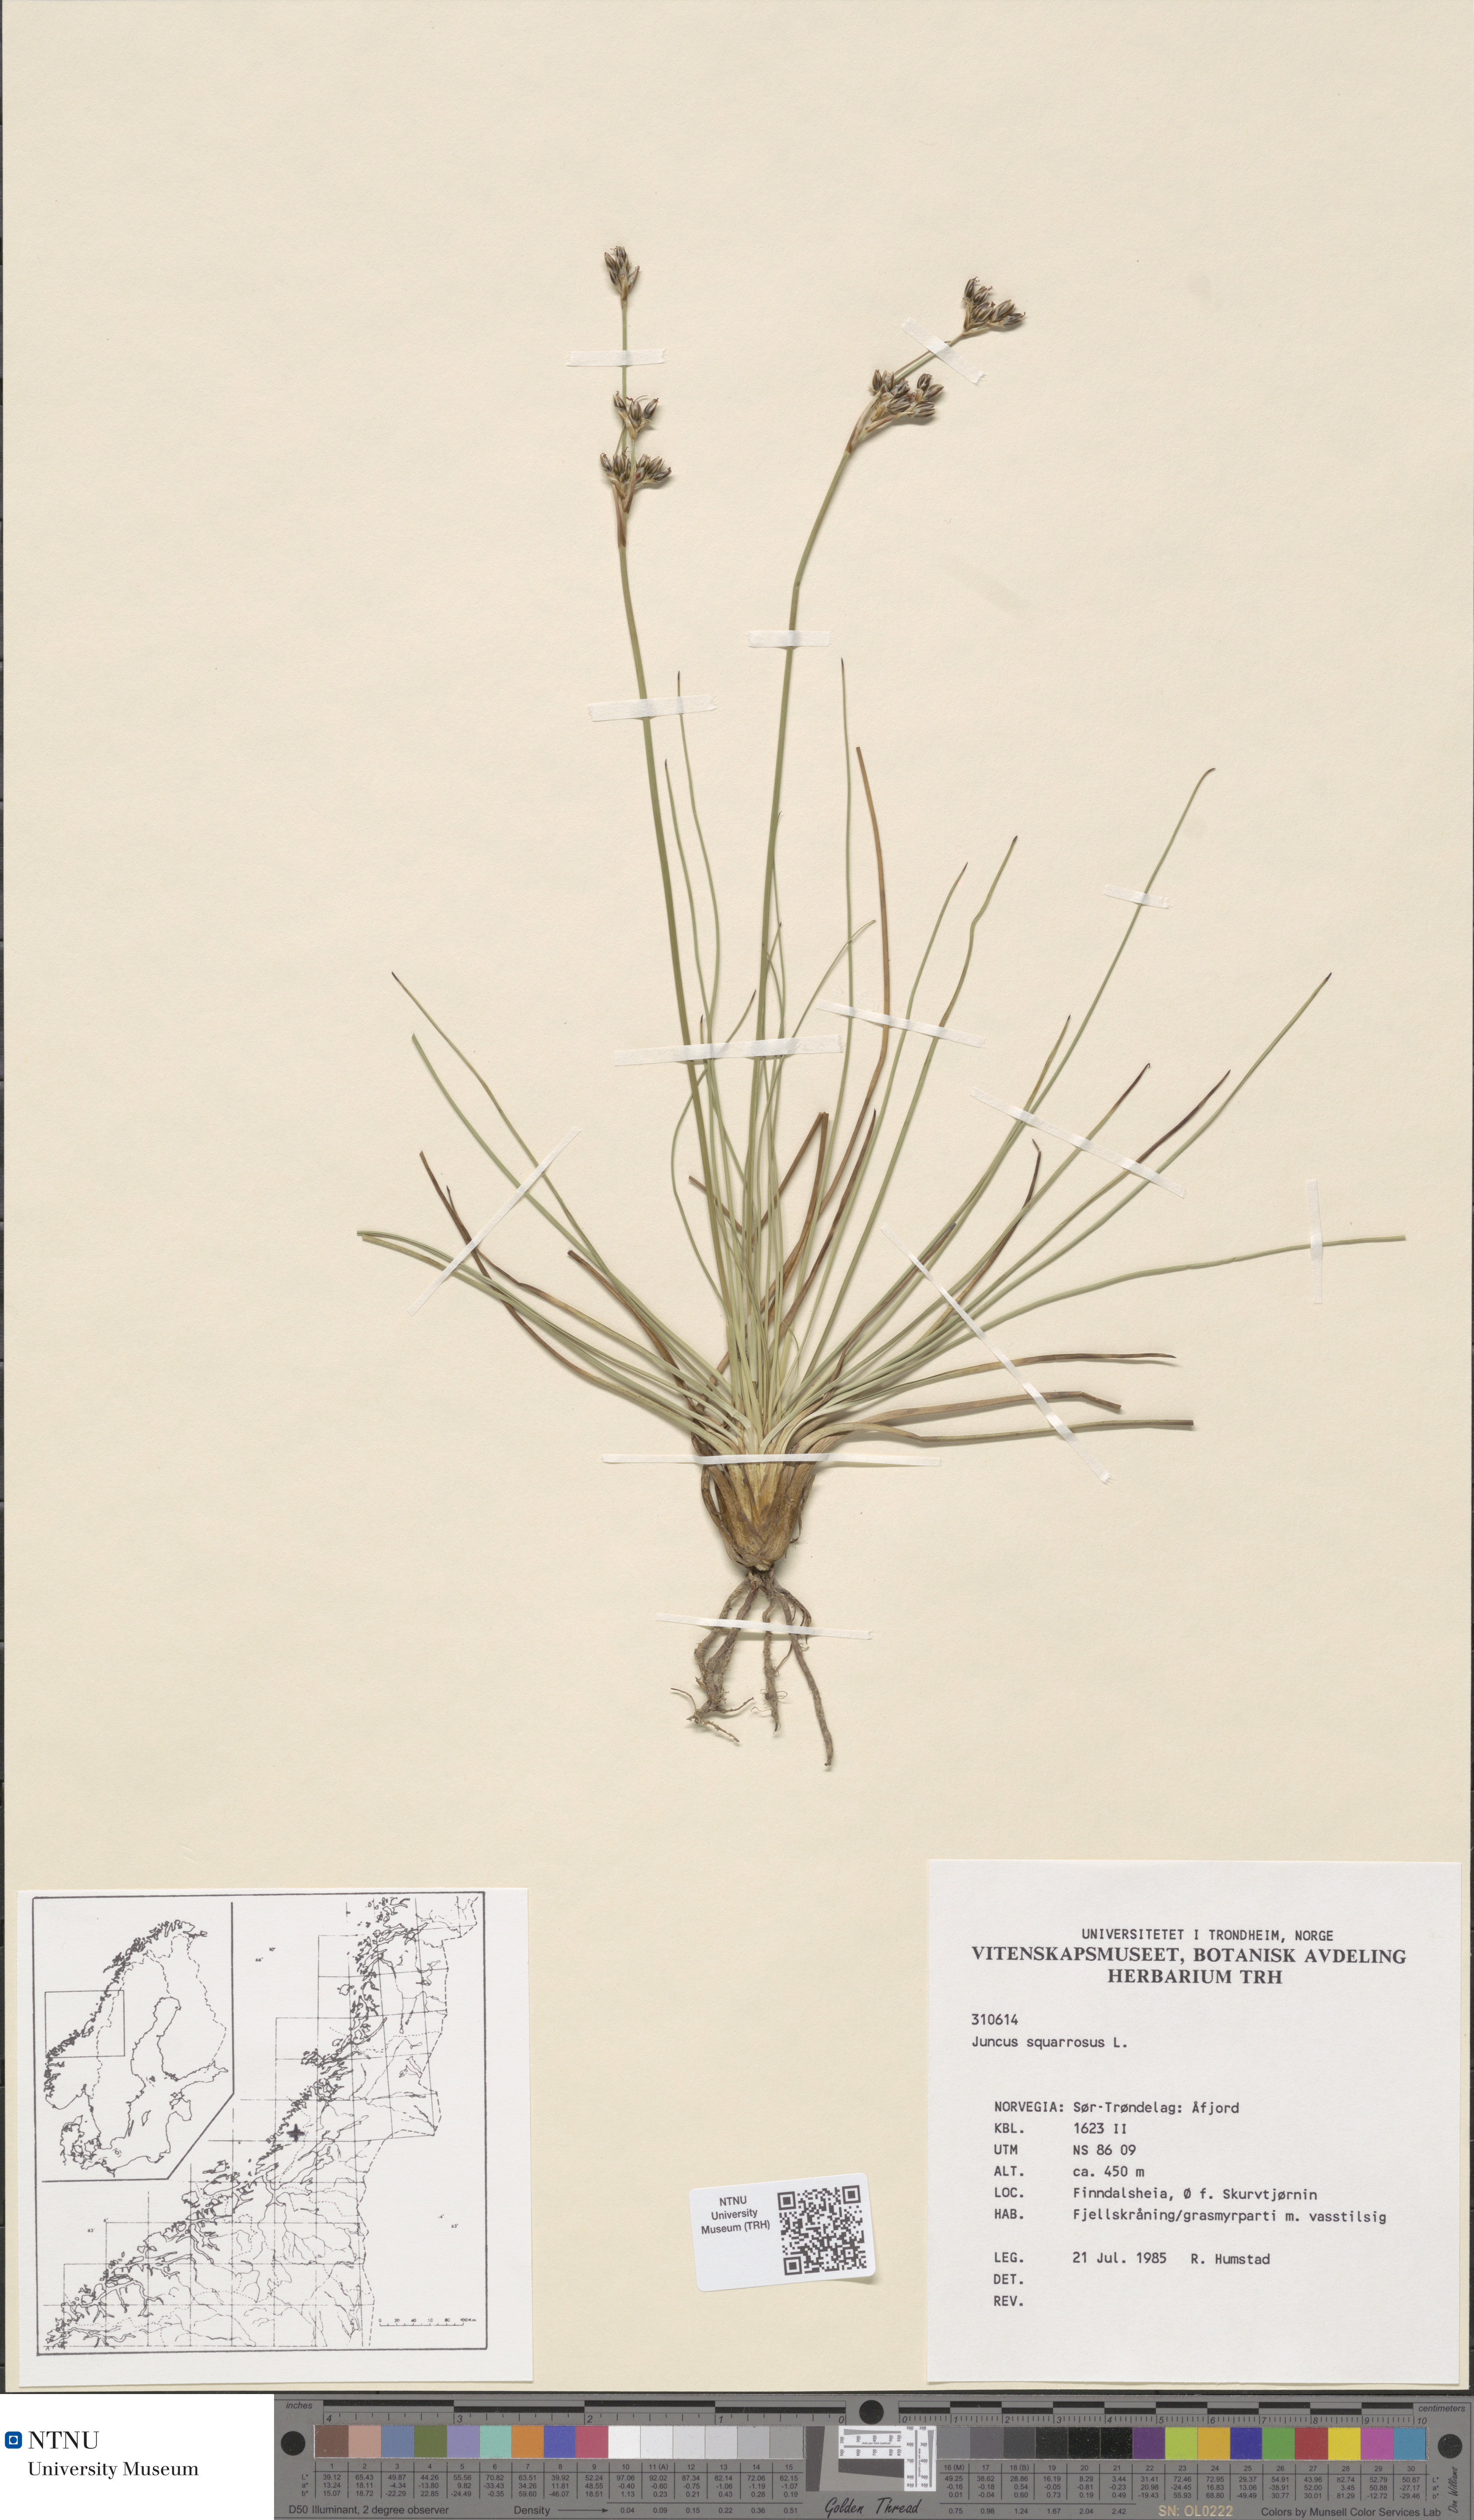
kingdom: Plantae
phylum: Tracheophyta
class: Liliopsida
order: Poales
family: Juncaceae
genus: Juncus
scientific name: Juncus squarrosus
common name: Heath rush
